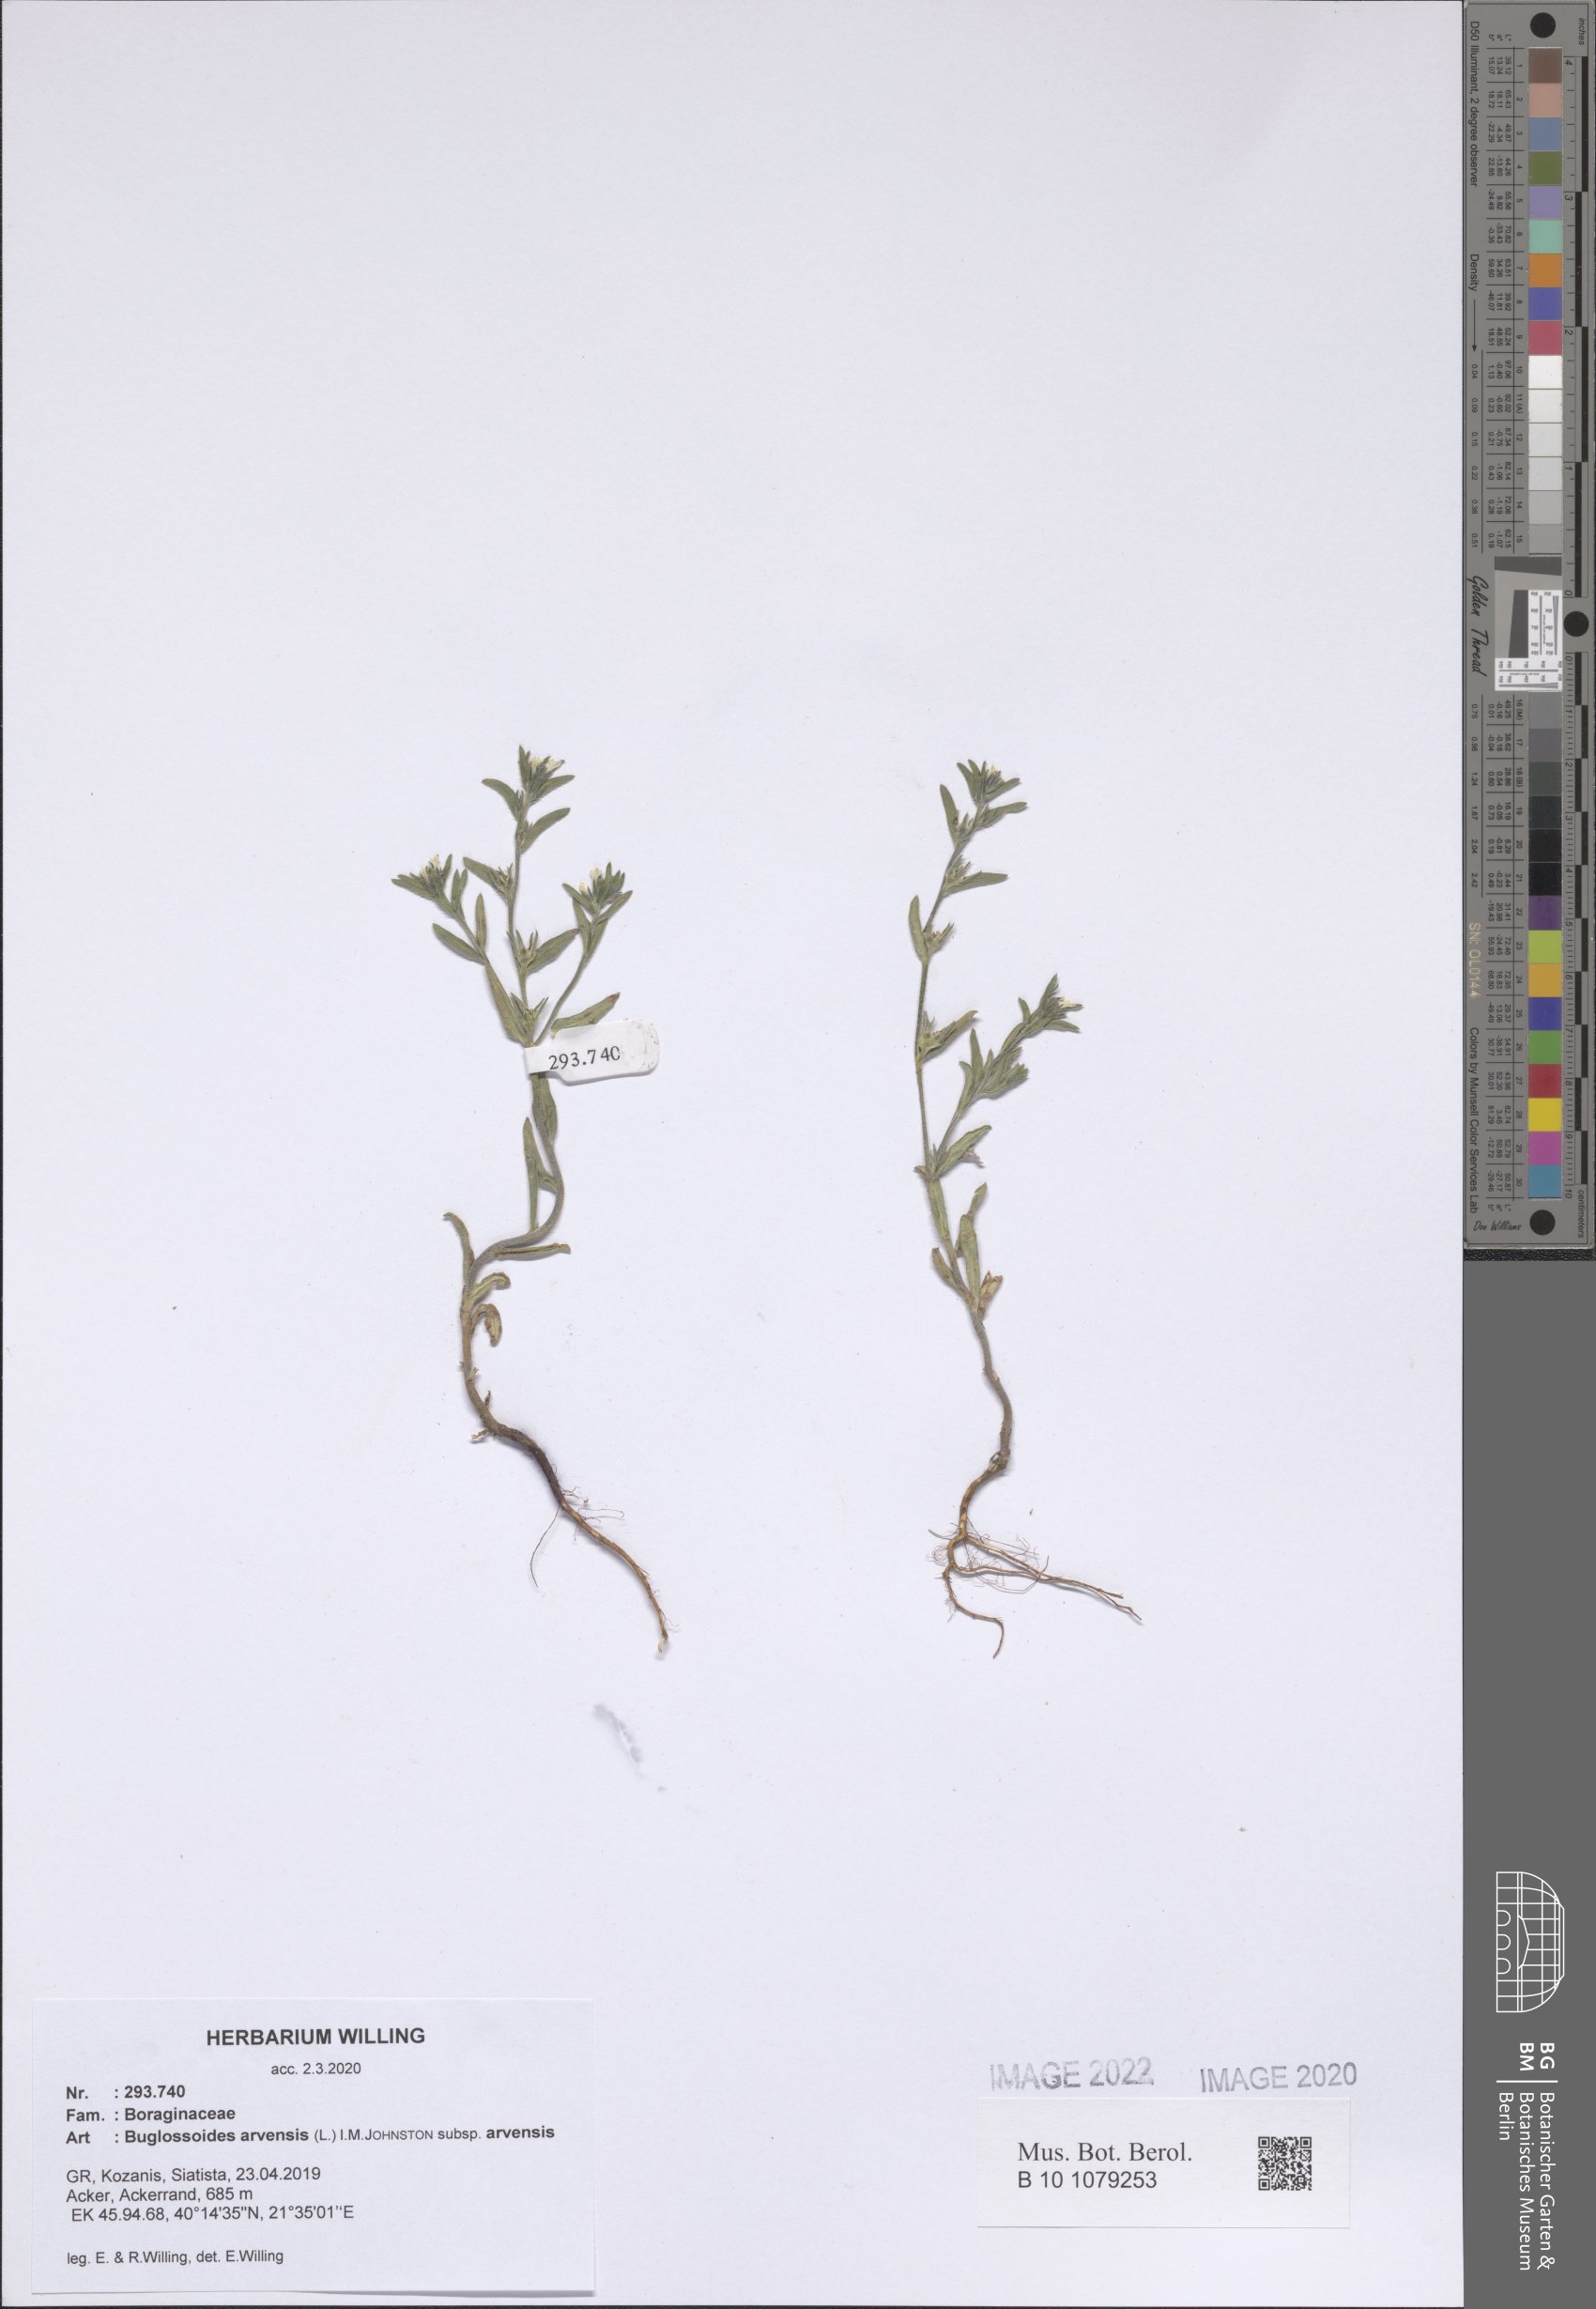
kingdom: Plantae
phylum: Tracheophyta
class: Magnoliopsida
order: Boraginales
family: Boraginaceae
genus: Buglossoides
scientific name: Buglossoides arvensis
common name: Corn gromwell
